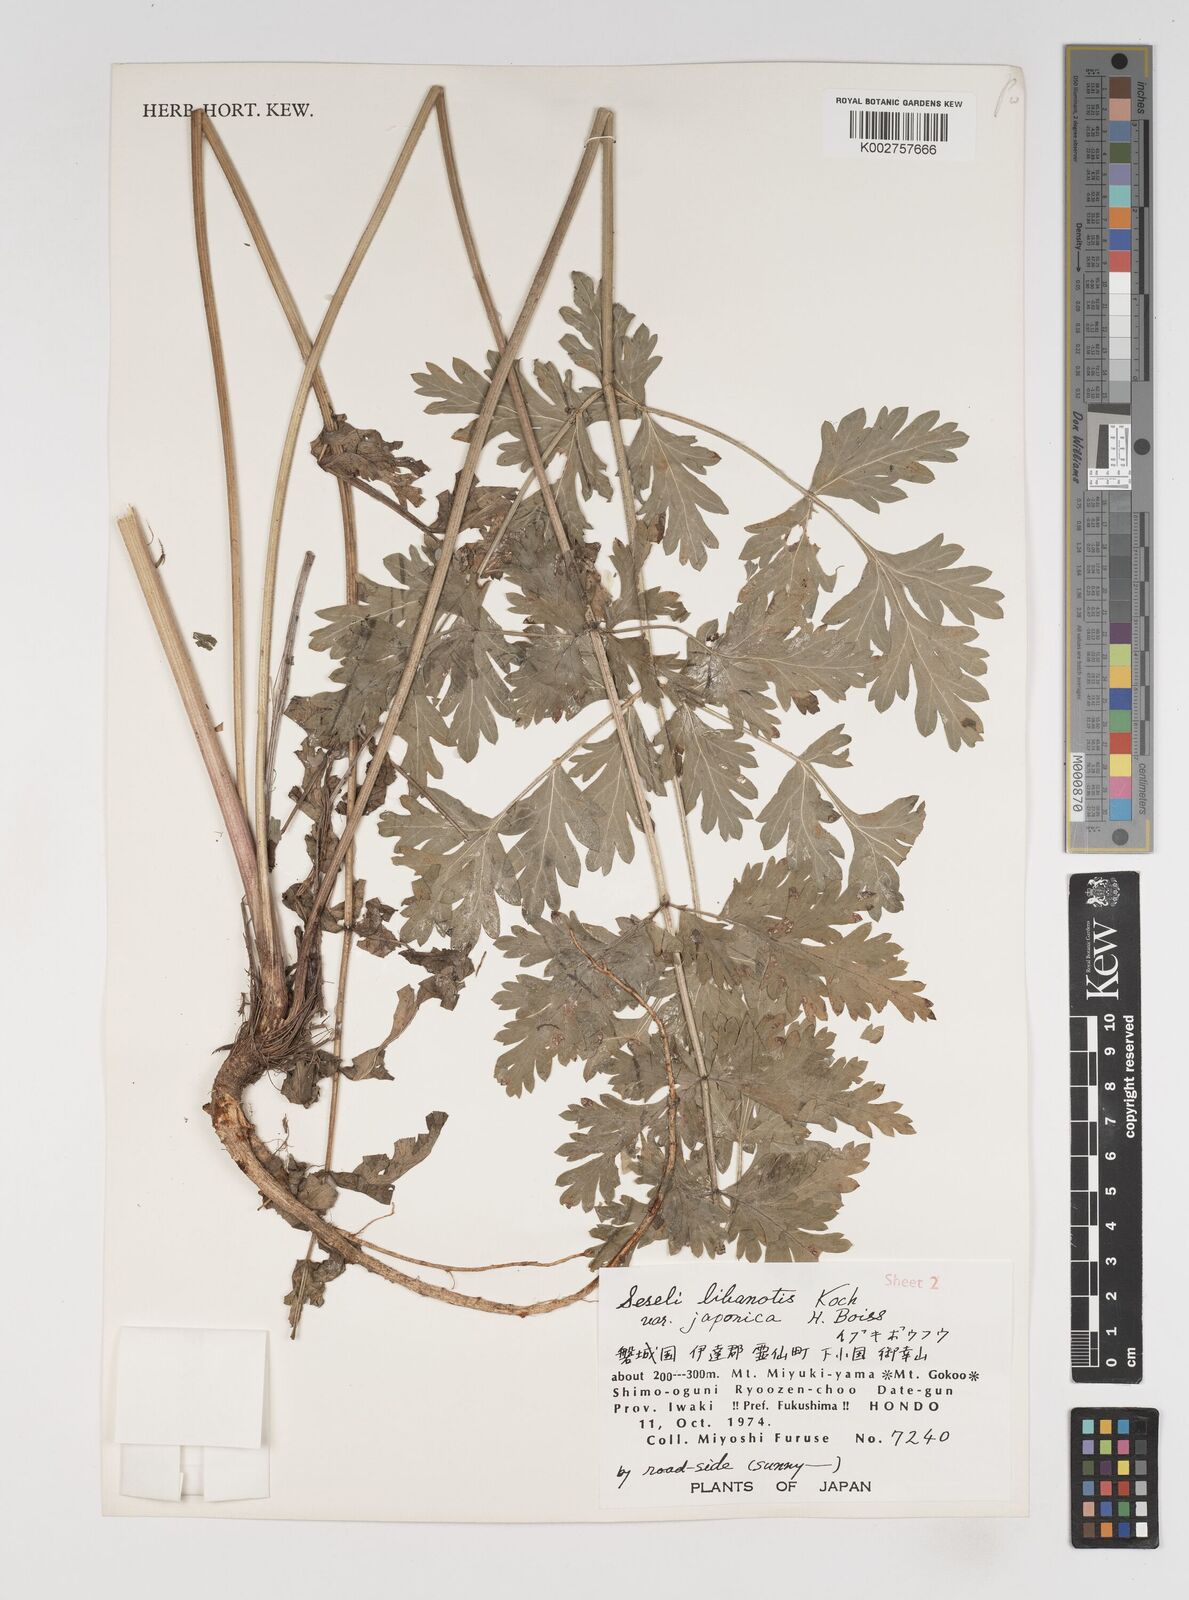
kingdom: Plantae
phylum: Tracheophyta
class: Magnoliopsida
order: Apiales
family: Apiaceae
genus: Seseli
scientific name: Seseli libanotis
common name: Mooncarrot
